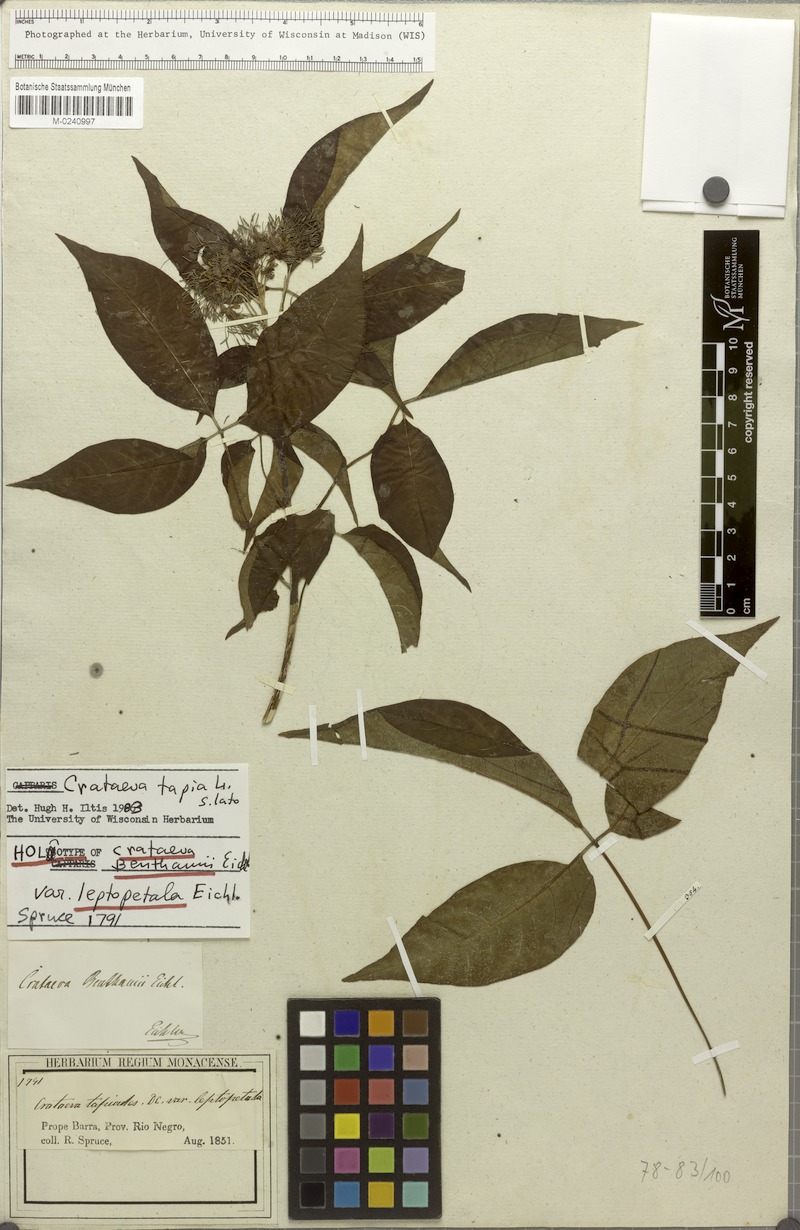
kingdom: Plantae
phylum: Tracheophyta
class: Magnoliopsida
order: Brassicales
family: Capparaceae
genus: Crateva
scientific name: Crateva tapia
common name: Garlic-pear
